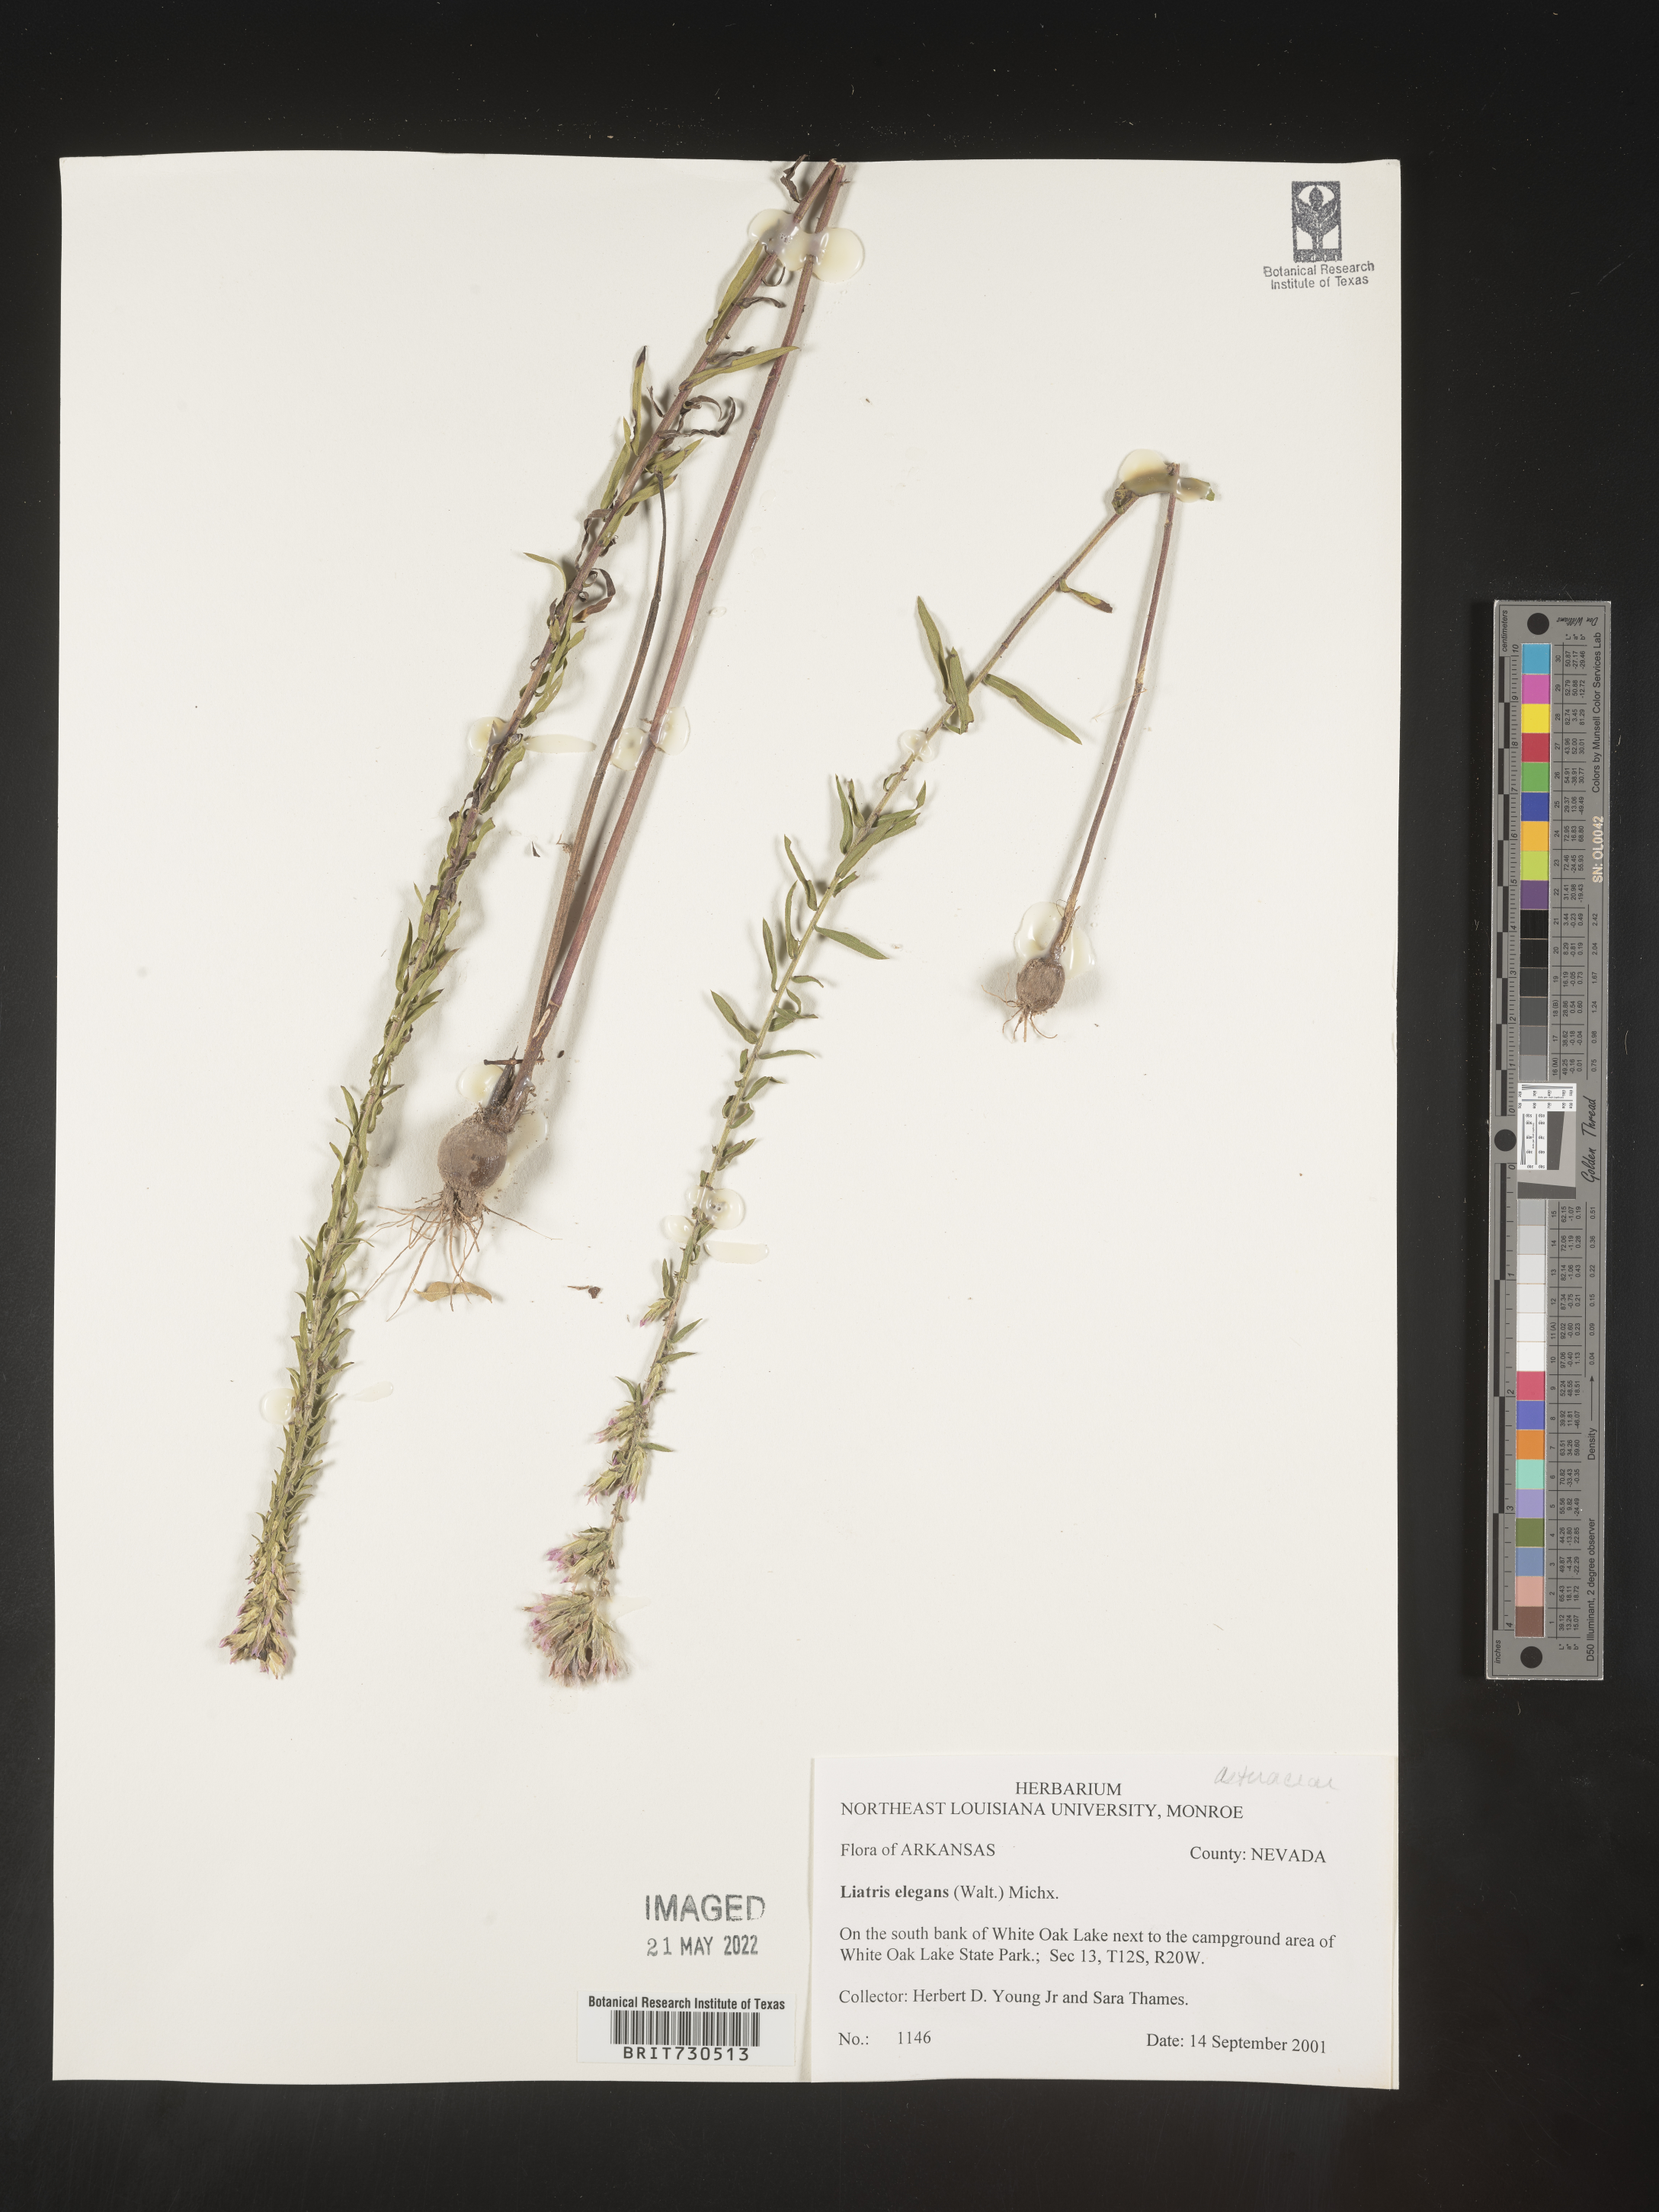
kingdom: Plantae
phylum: Tracheophyta
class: Magnoliopsida
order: Asterales
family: Asteraceae
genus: Liatris
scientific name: Liatris elegans
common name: Pinkscale gayfeather
